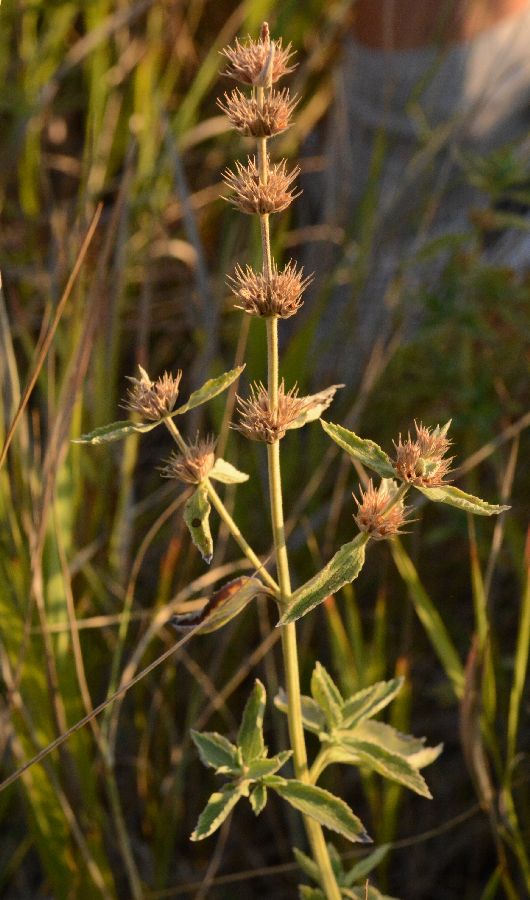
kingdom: Plantae
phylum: Tracheophyta
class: Magnoliopsida
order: Lamiales
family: Lamiaceae
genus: Marrubium
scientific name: Marrubium peregrinum
